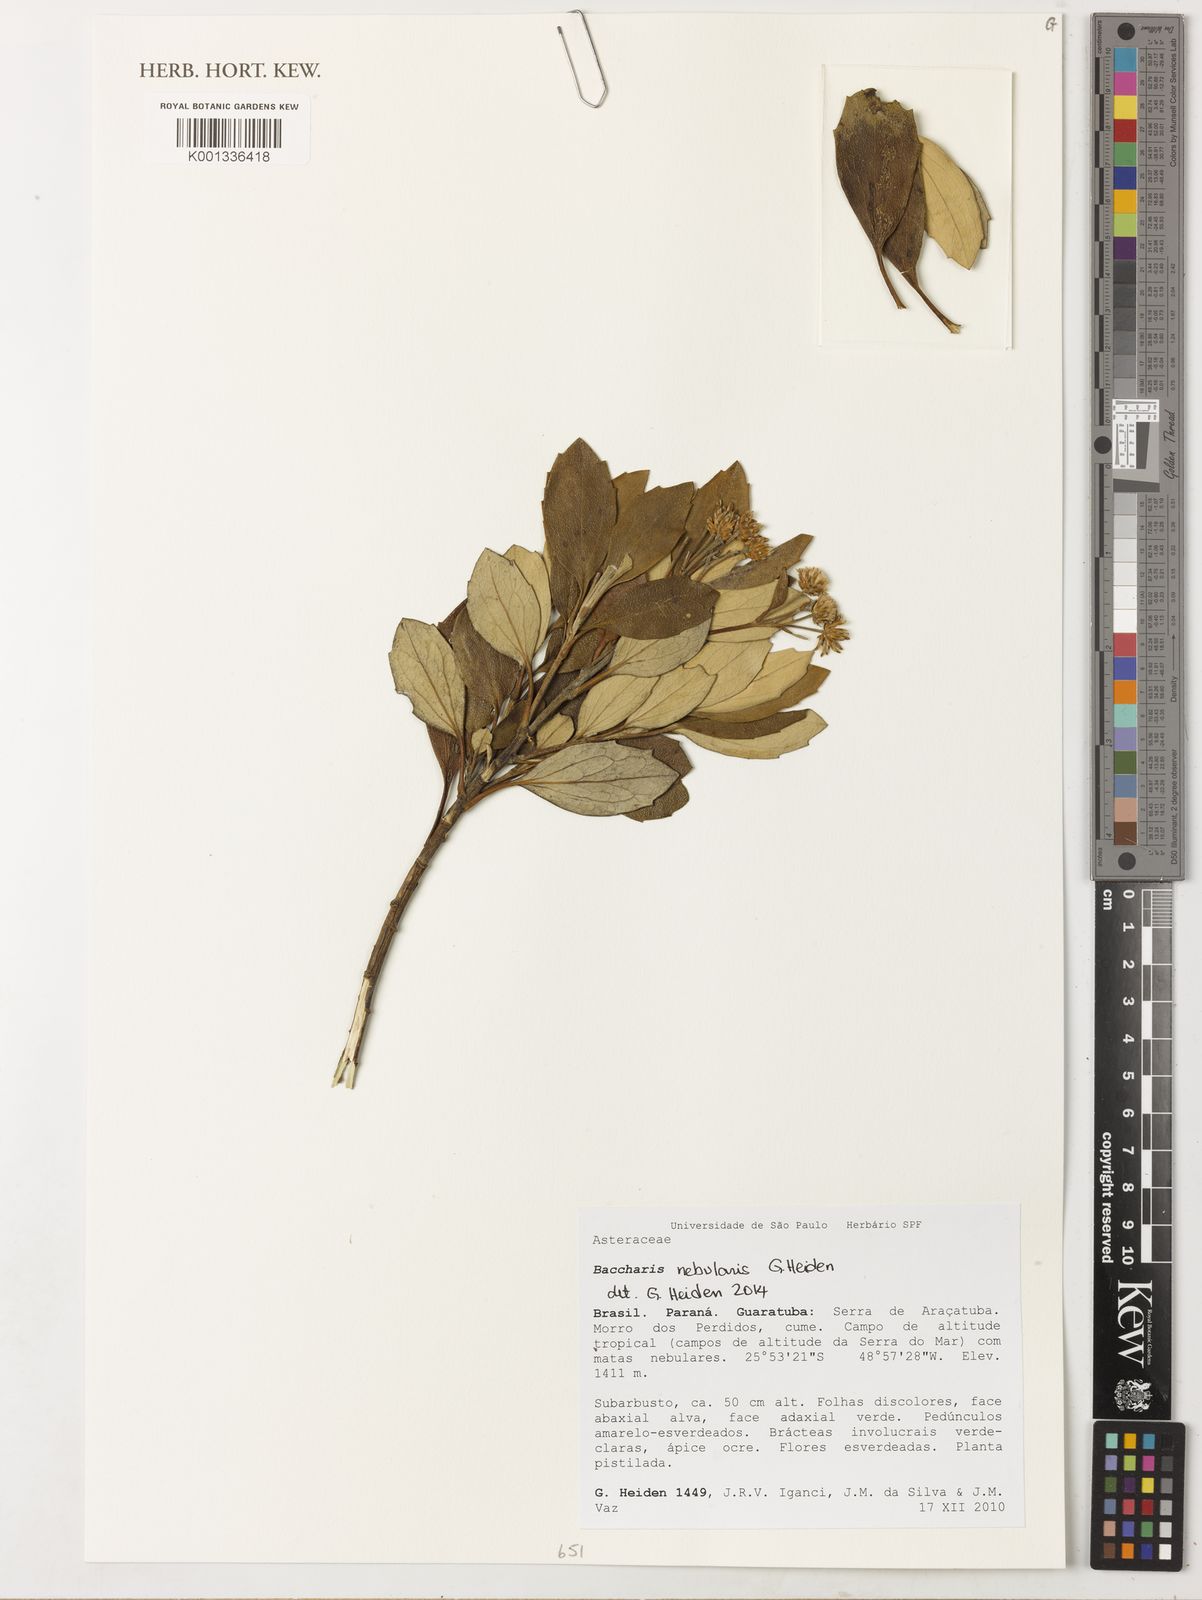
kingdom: Plantae
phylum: Tracheophyta
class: Magnoliopsida
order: Asterales
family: Asteraceae
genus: Baccharis
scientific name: Baccharis nebularis
